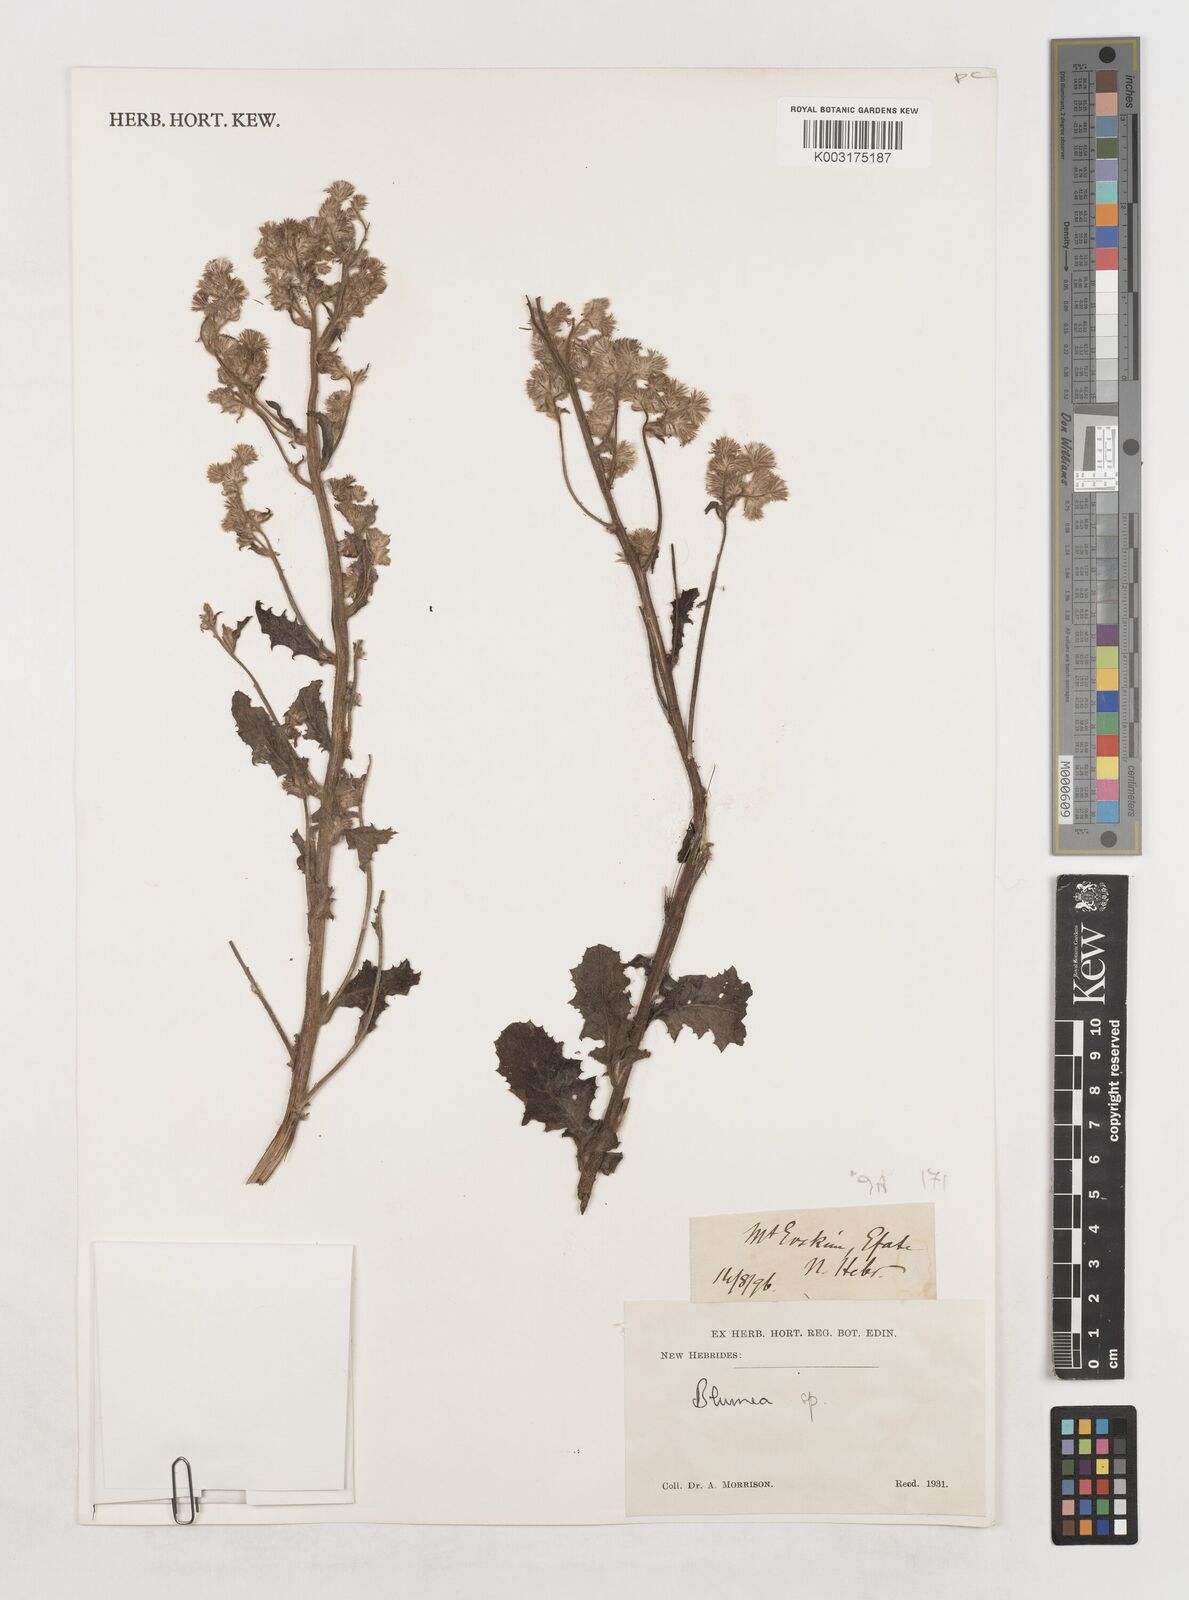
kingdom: Plantae
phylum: Tracheophyta
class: Magnoliopsida
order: Asterales
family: Asteraceae
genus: Blumea
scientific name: Blumea
